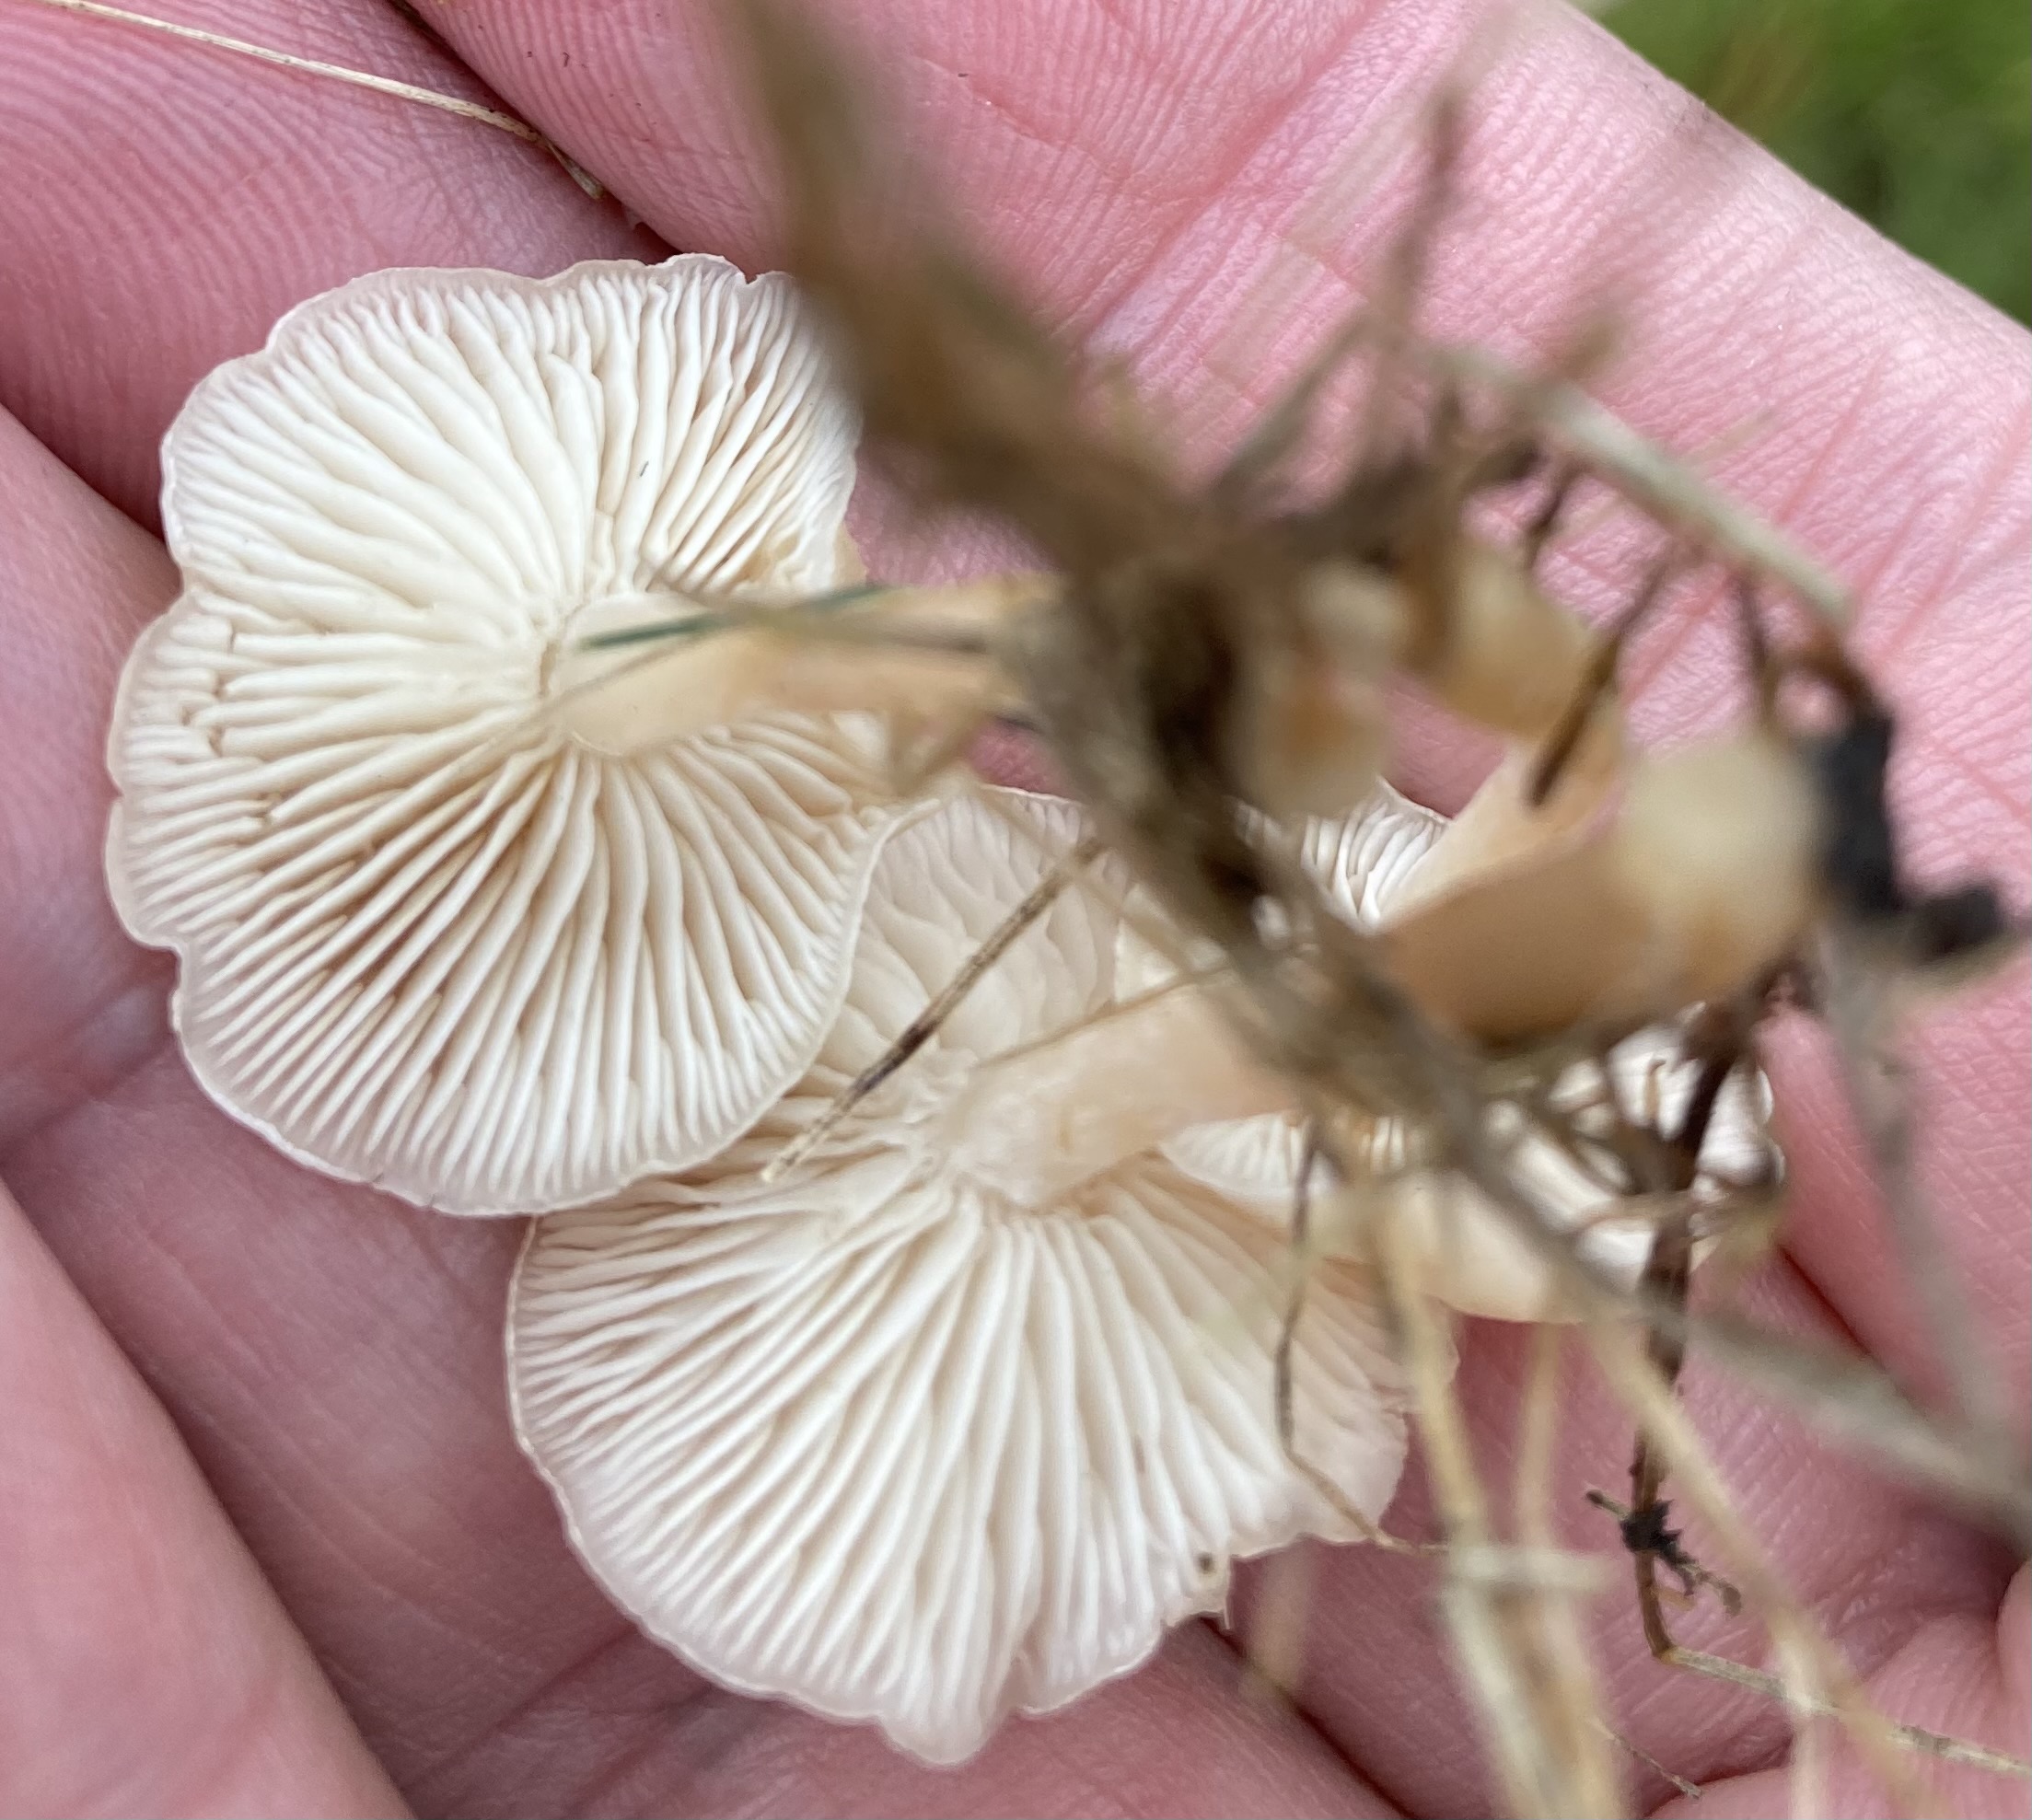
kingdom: Fungi
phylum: Basidiomycota
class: Agaricomycetes
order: Agaricales
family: Tricholomataceae
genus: Clitocybe
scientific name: Clitocybe
